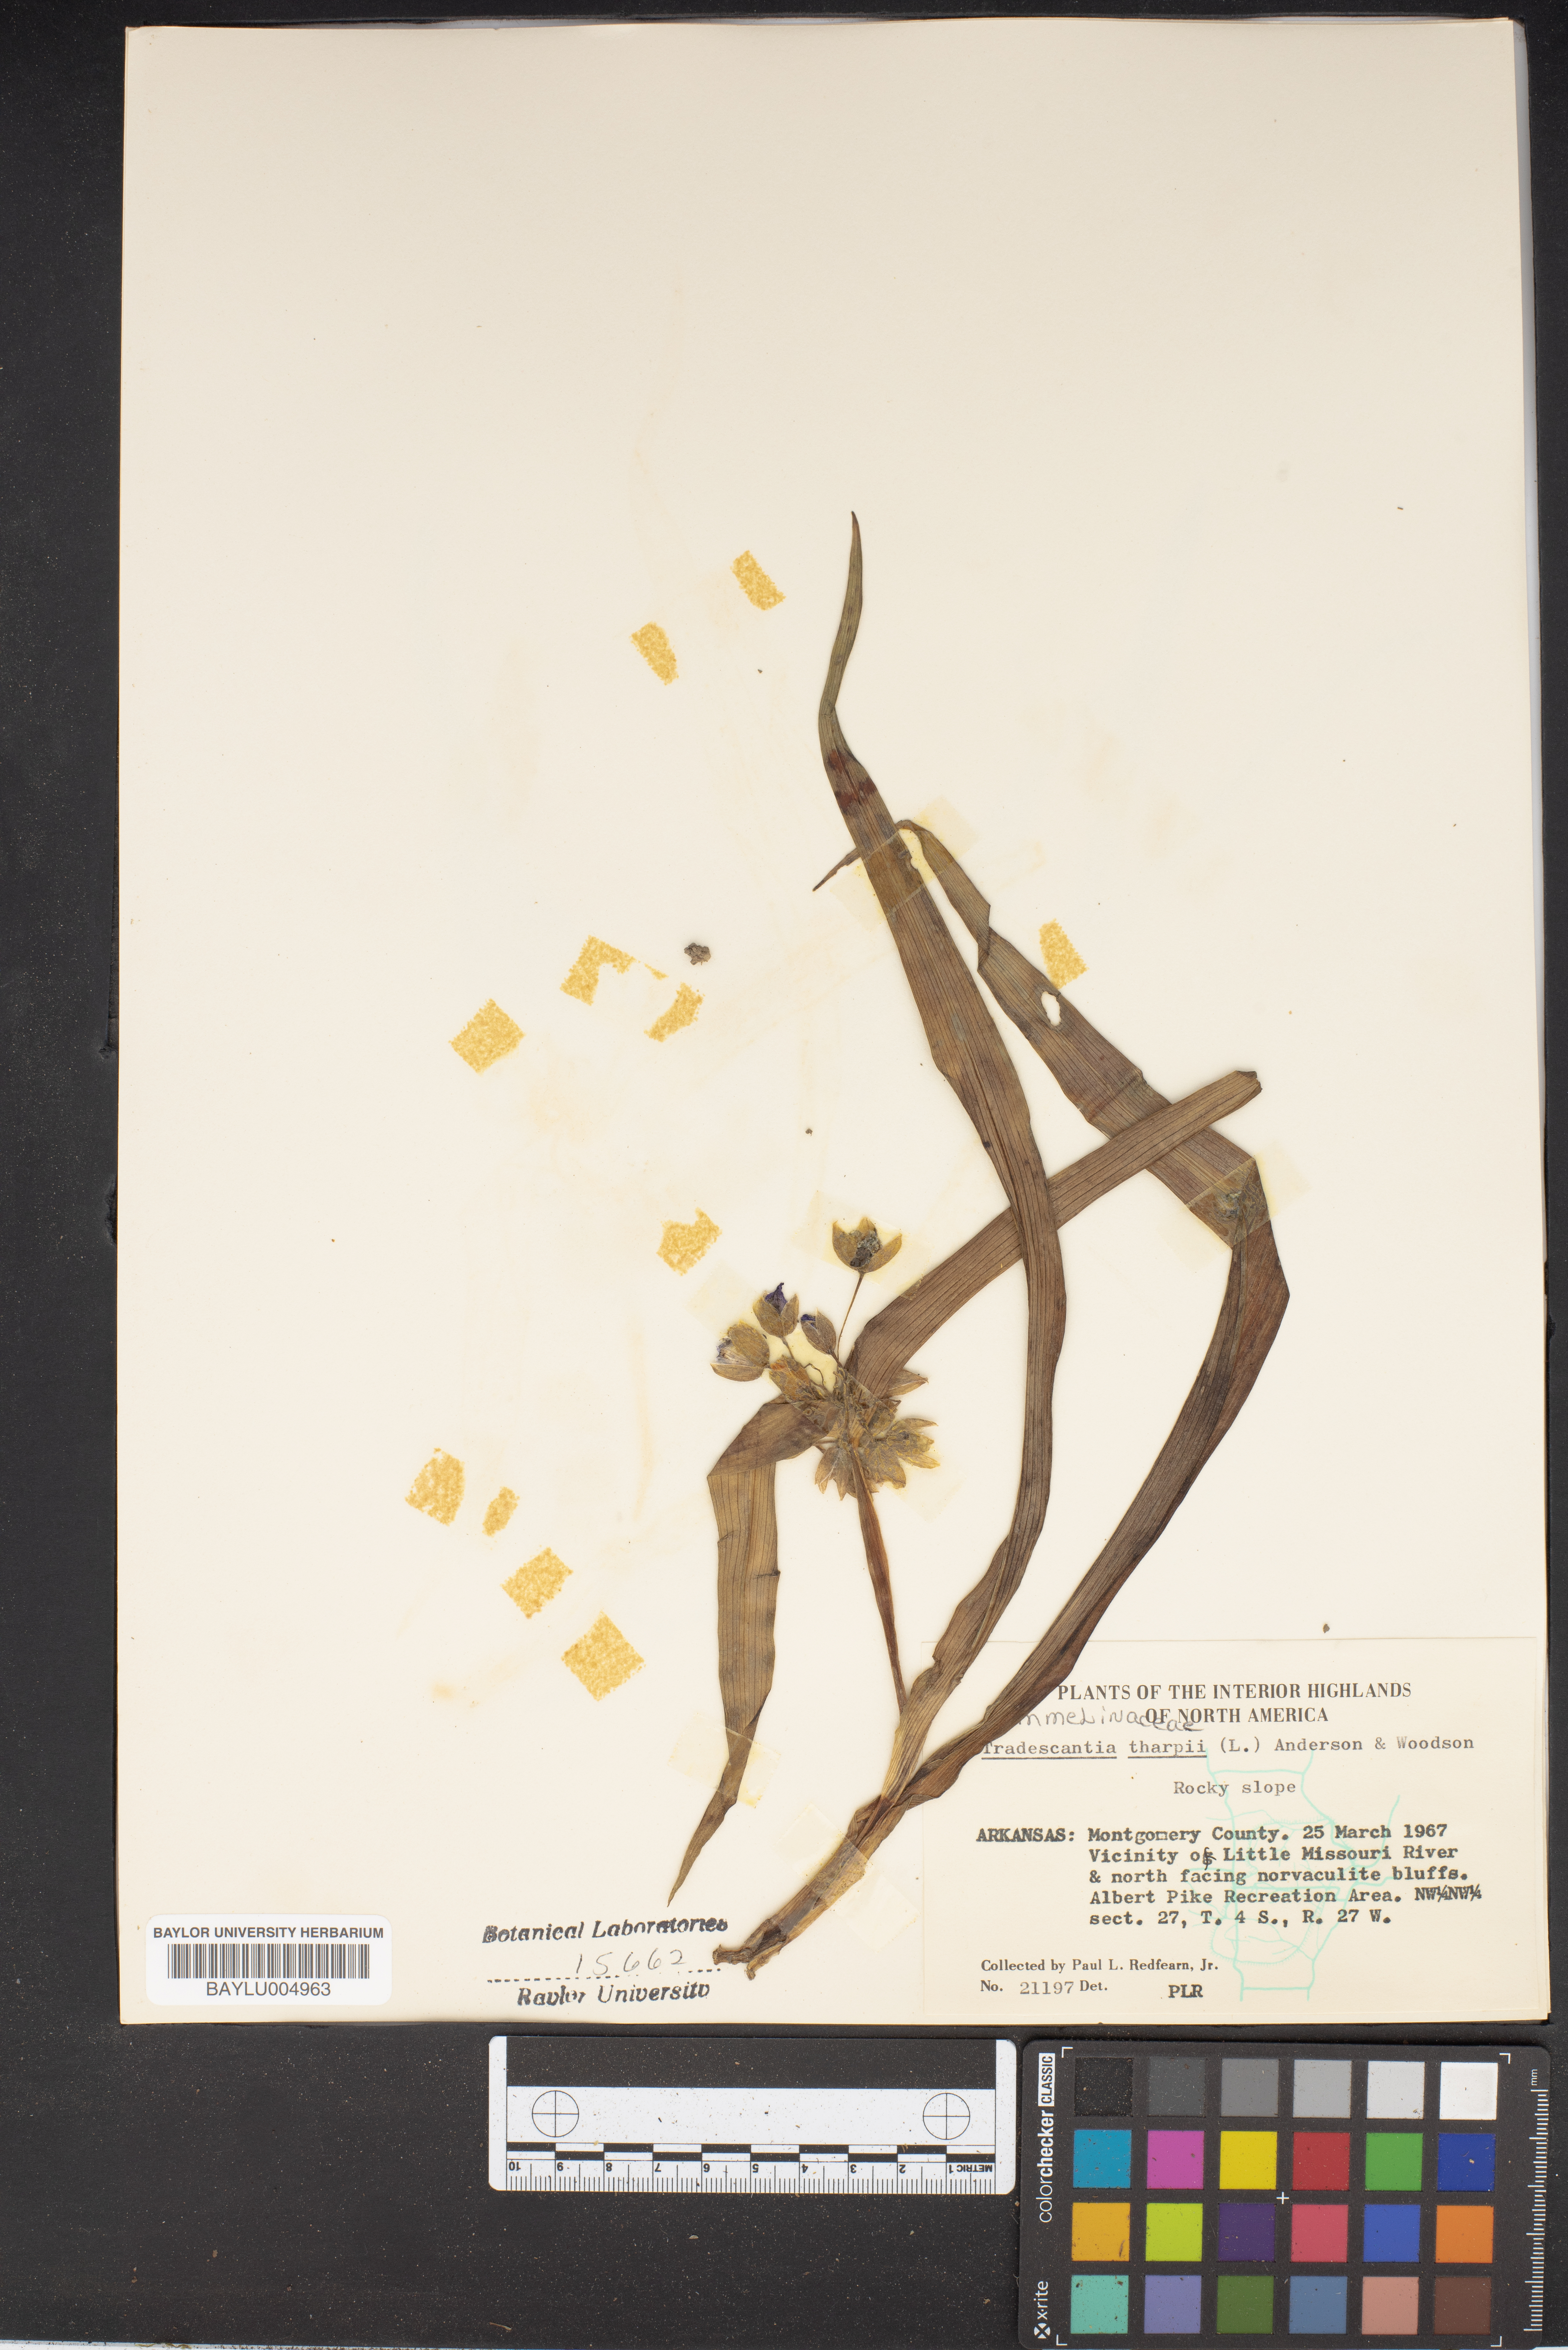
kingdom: Plantae
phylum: Tracheophyta
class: Liliopsida
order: Commelinales
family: Commelinaceae
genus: Tradescantia
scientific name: Tradescantia tharpii
